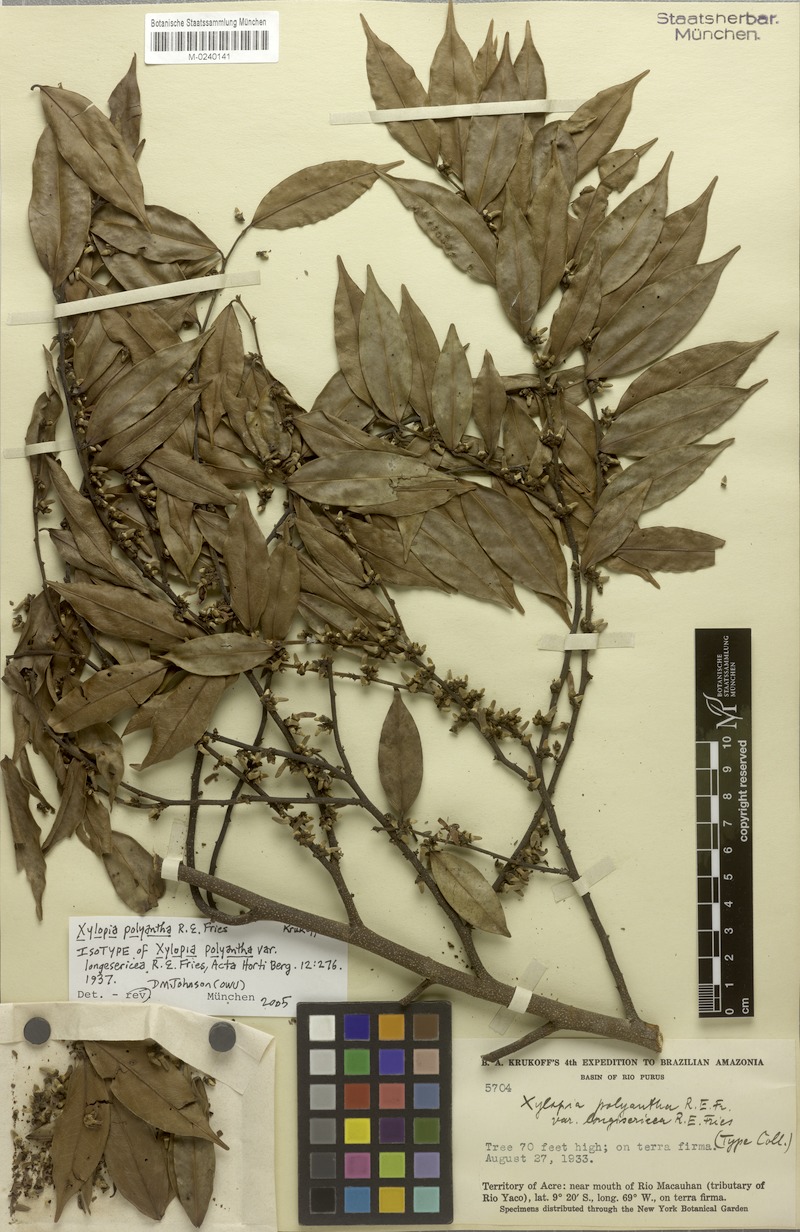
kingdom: Plantae
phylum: Tracheophyta
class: Magnoliopsida
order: Magnoliales
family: Annonaceae
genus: Xylopia
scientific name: Xylopia polyantha
